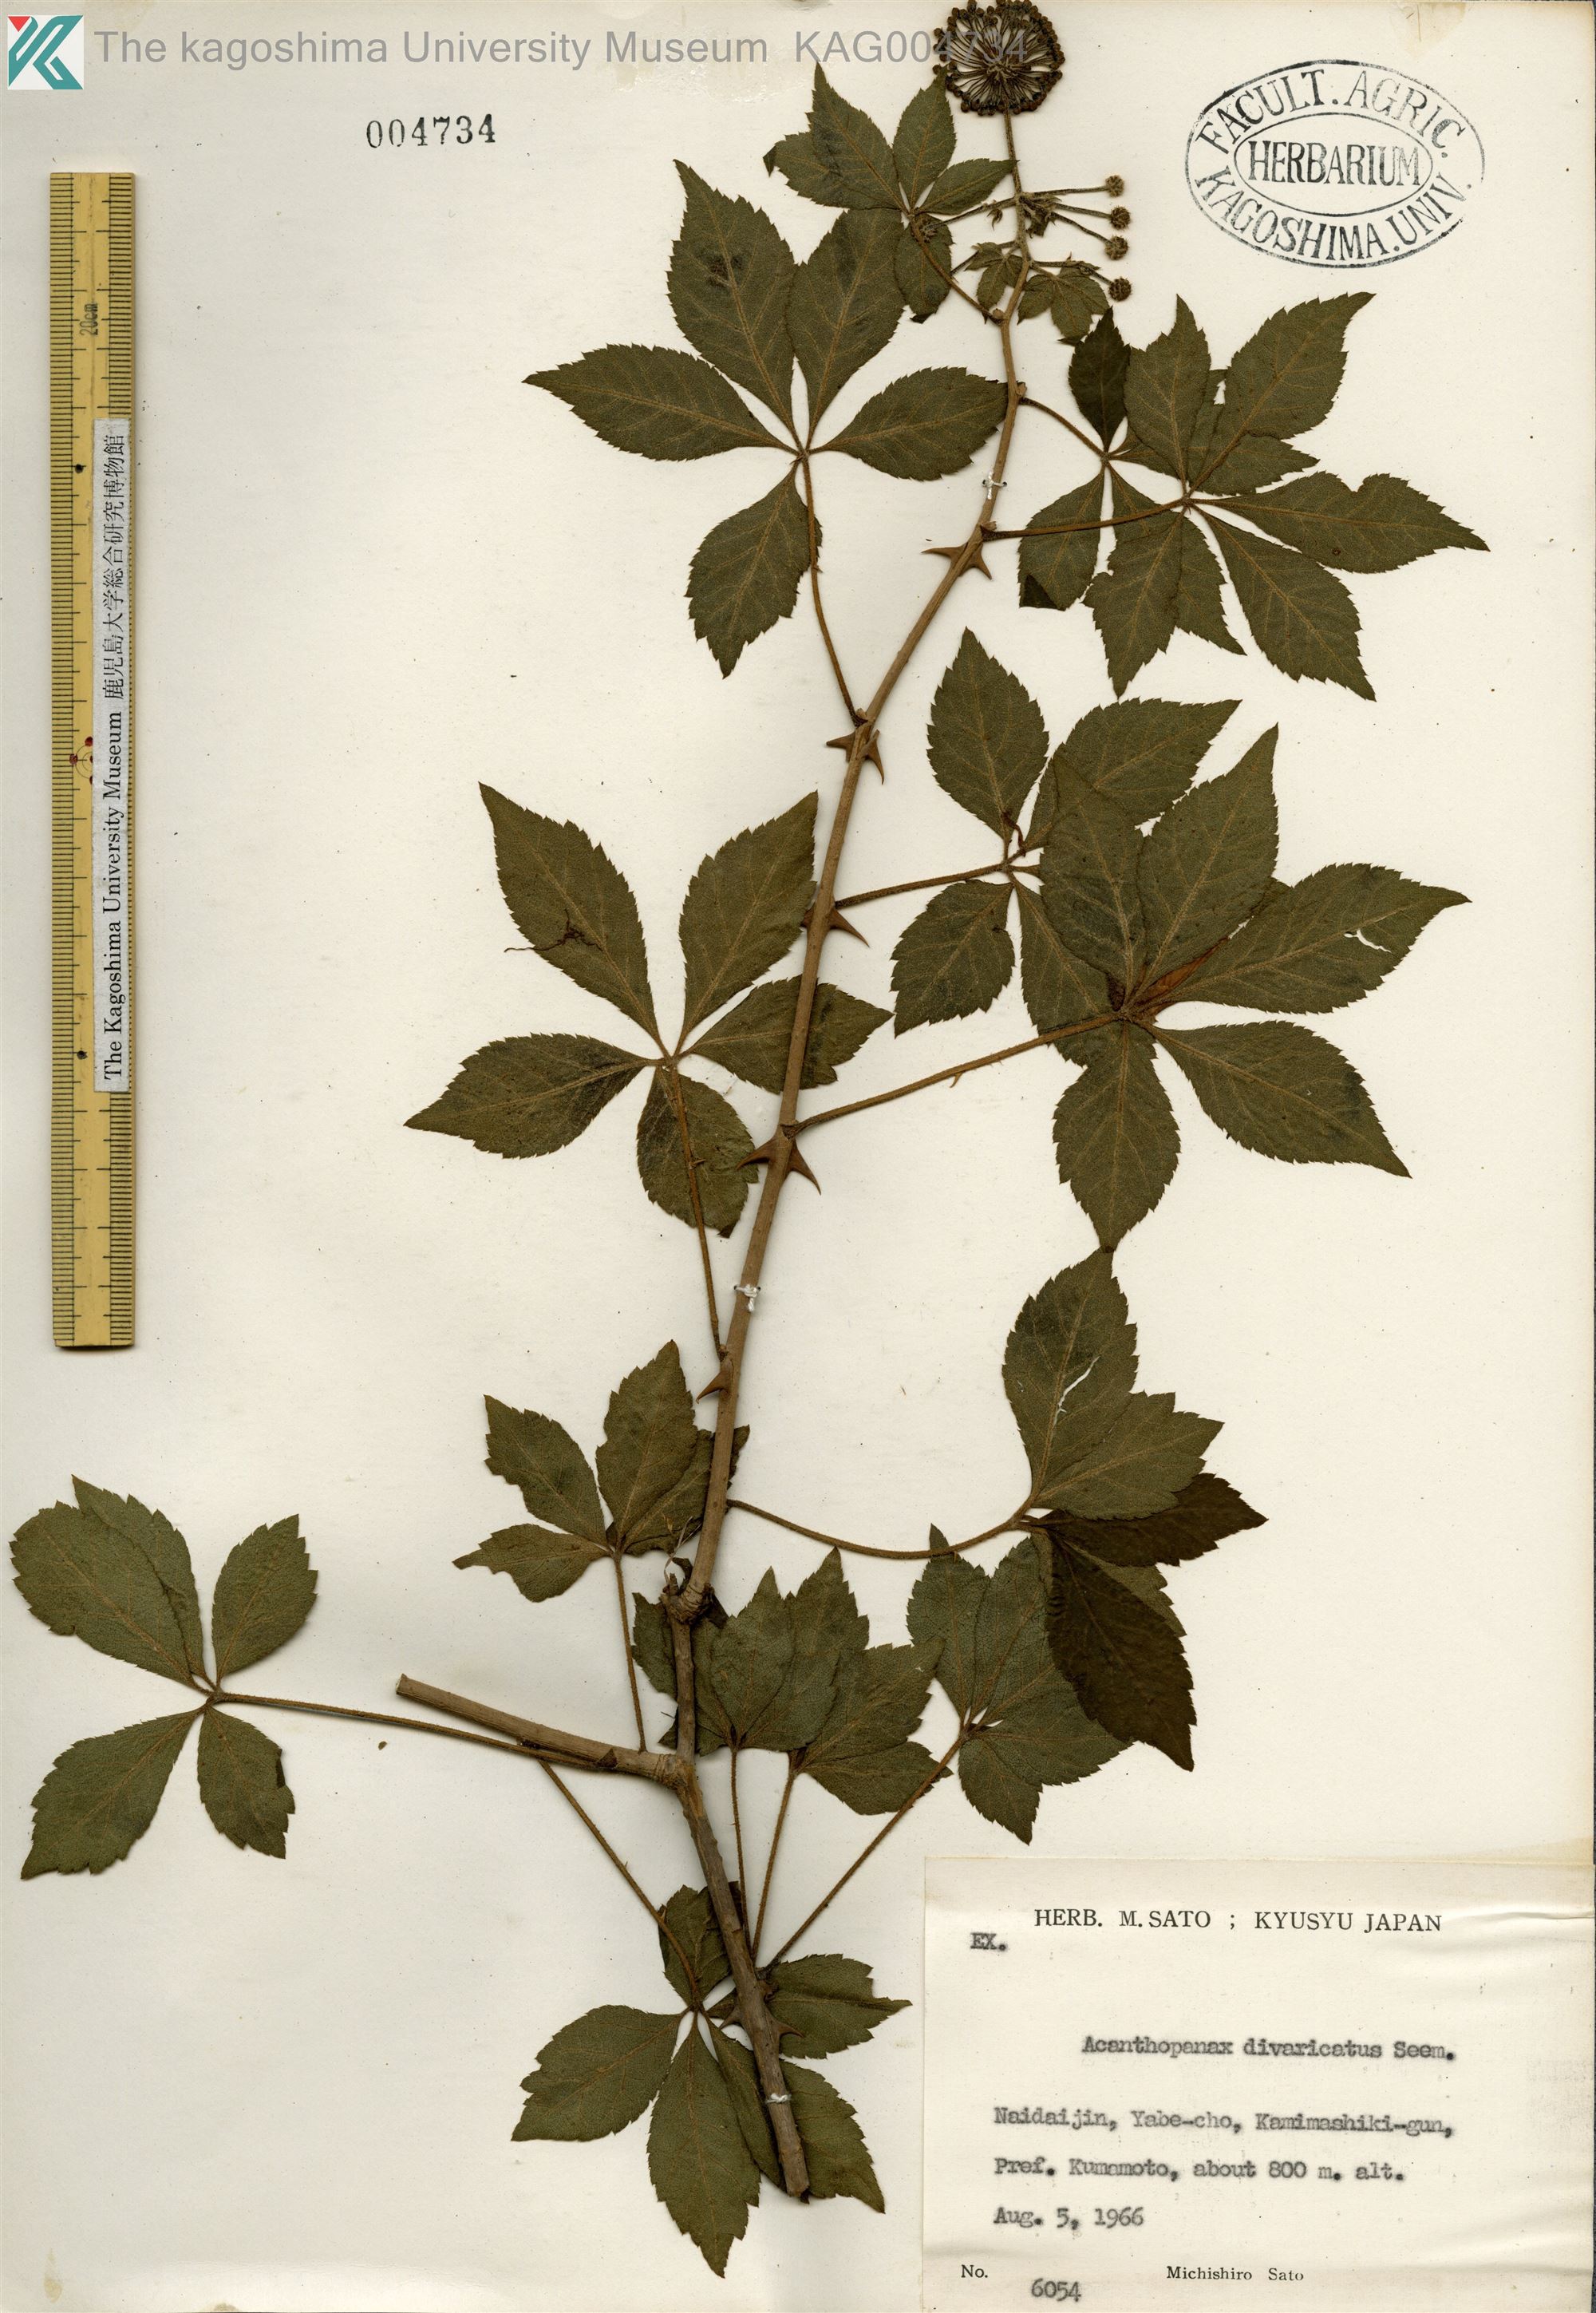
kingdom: Plantae
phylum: Tracheophyta
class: Magnoliopsida
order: Apiales
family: Araliaceae
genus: Eleutherococcus
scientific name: Eleutherococcus divaricatus
